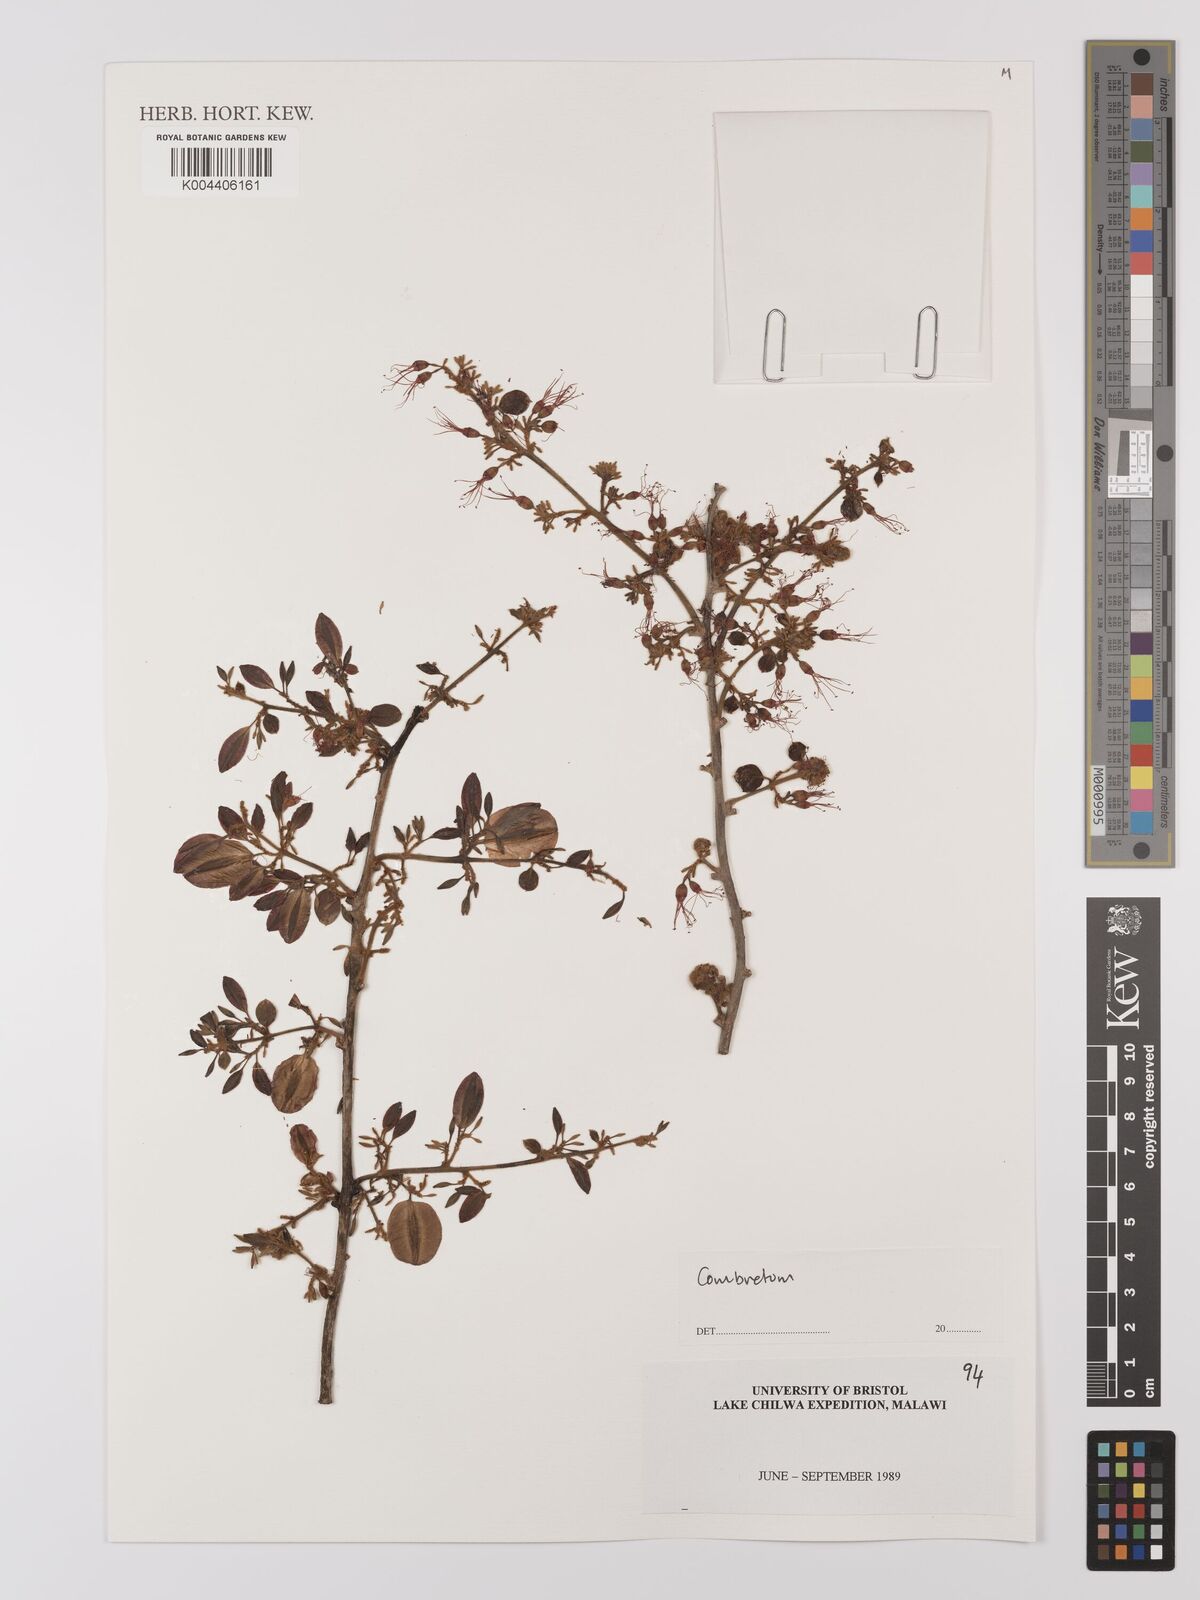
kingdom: Plantae
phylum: Tracheophyta
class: Magnoliopsida
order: Myrtales
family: Combretaceae
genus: Combretum
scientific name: Combretum
